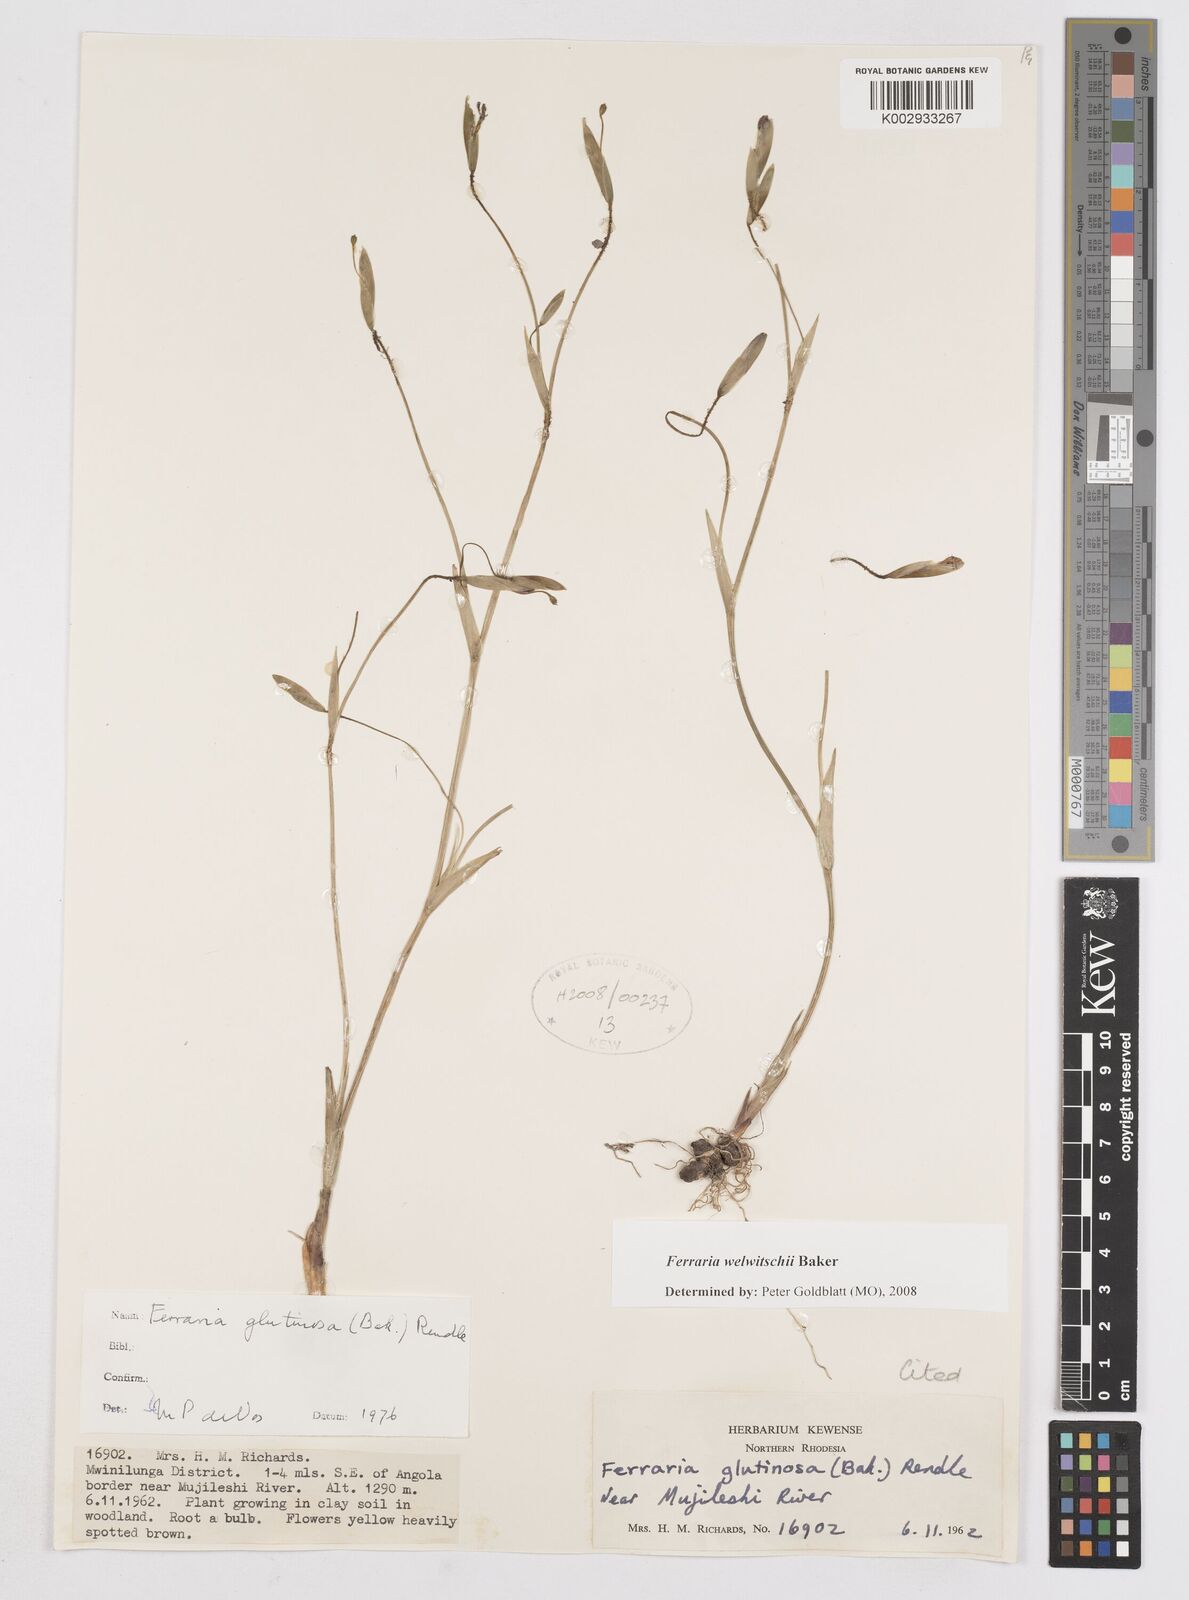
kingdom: Plantae
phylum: Tracheophyta
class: Liliopsida
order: Asparagales
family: Iridaceae
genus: Ferraria
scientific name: Ferraria welwitschii
